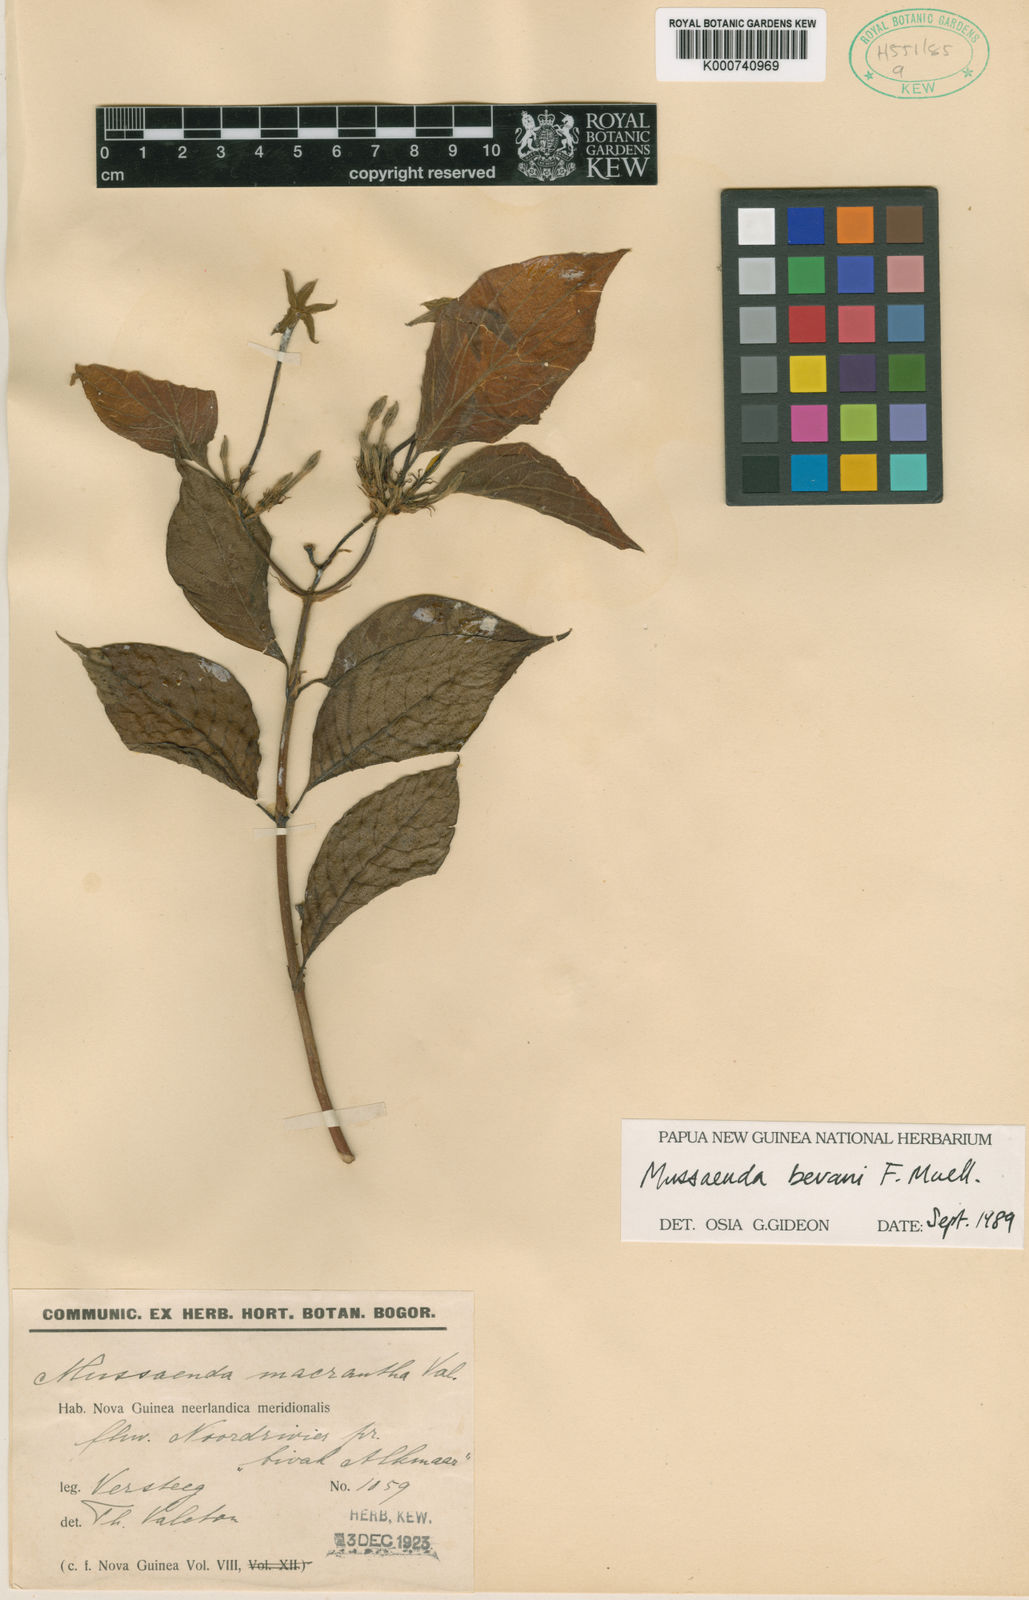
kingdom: Plantae
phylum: Tracheophyta
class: Magnoliopsida
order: Gentianales
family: Rubiaceae
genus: Mussaenda
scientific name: Mussaenda bevanii
